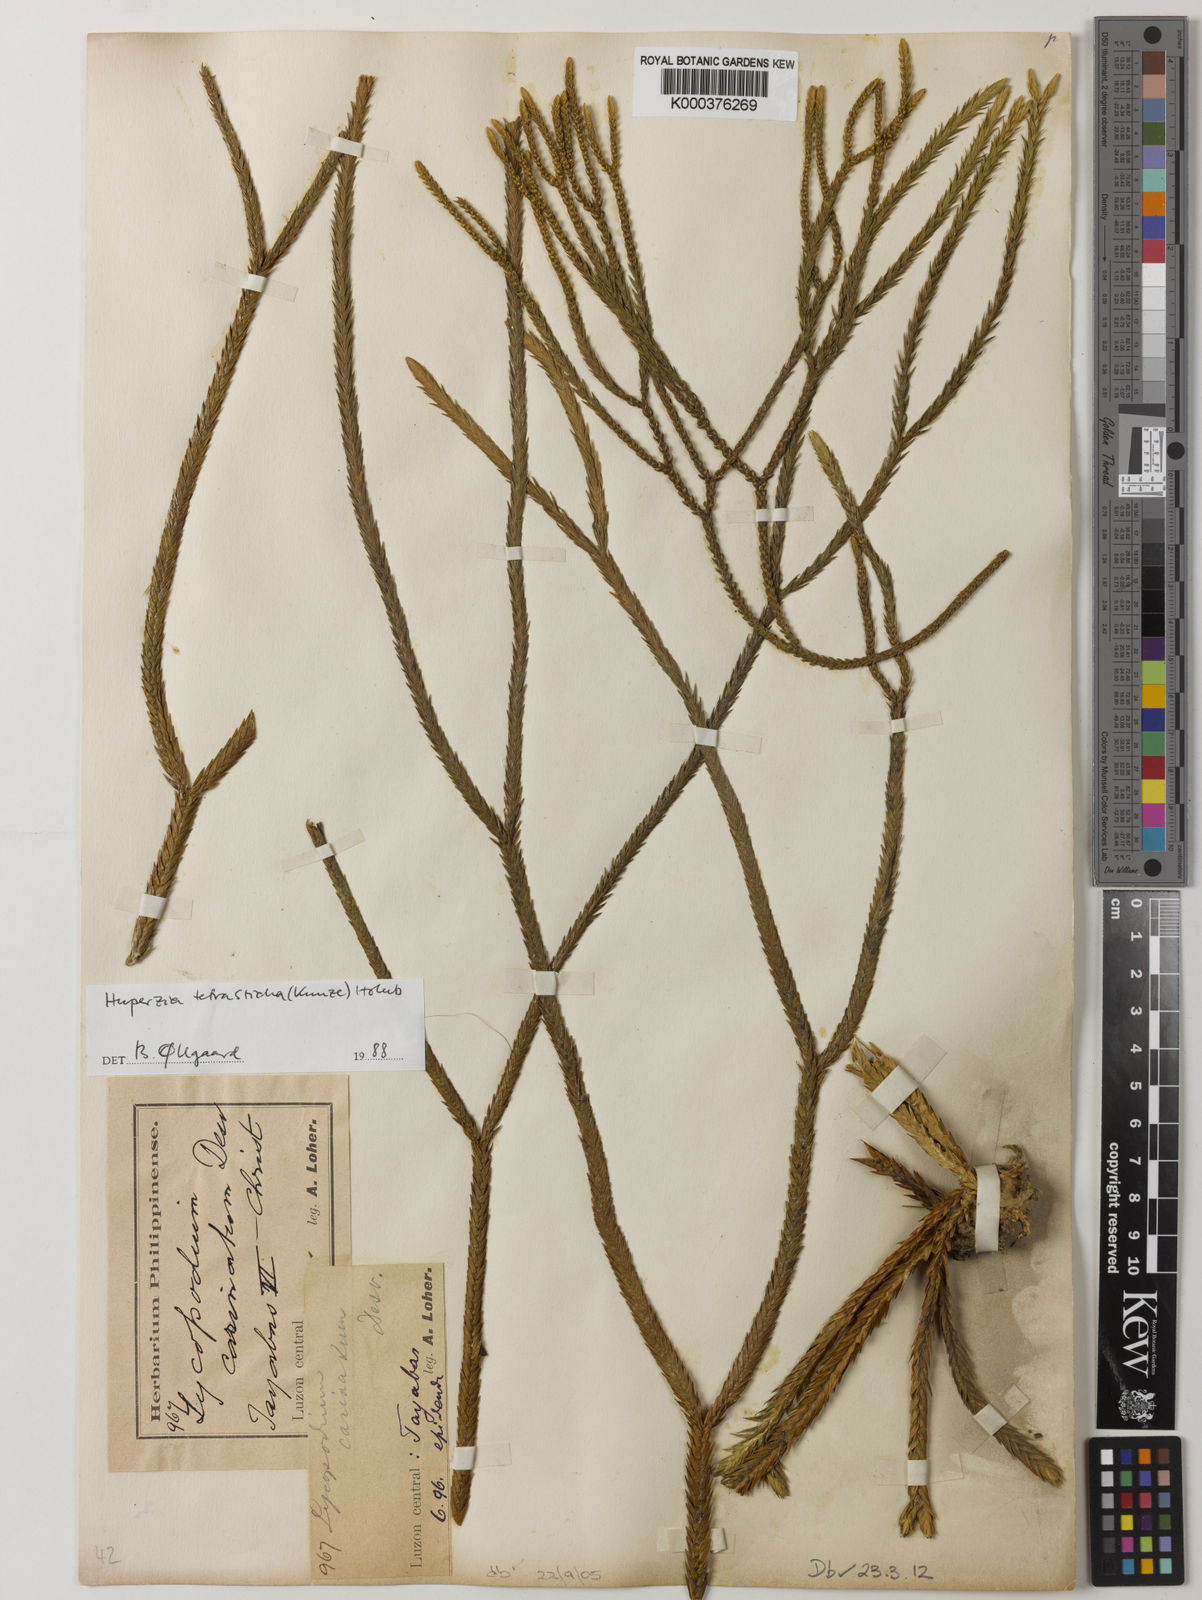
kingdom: Plantae
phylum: Tracheophyta
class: Lycopodiopsida
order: Lycopodiales
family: Lycopodiaceae
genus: Phlegmariurus
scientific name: Phlegmariurus tetrastichus
